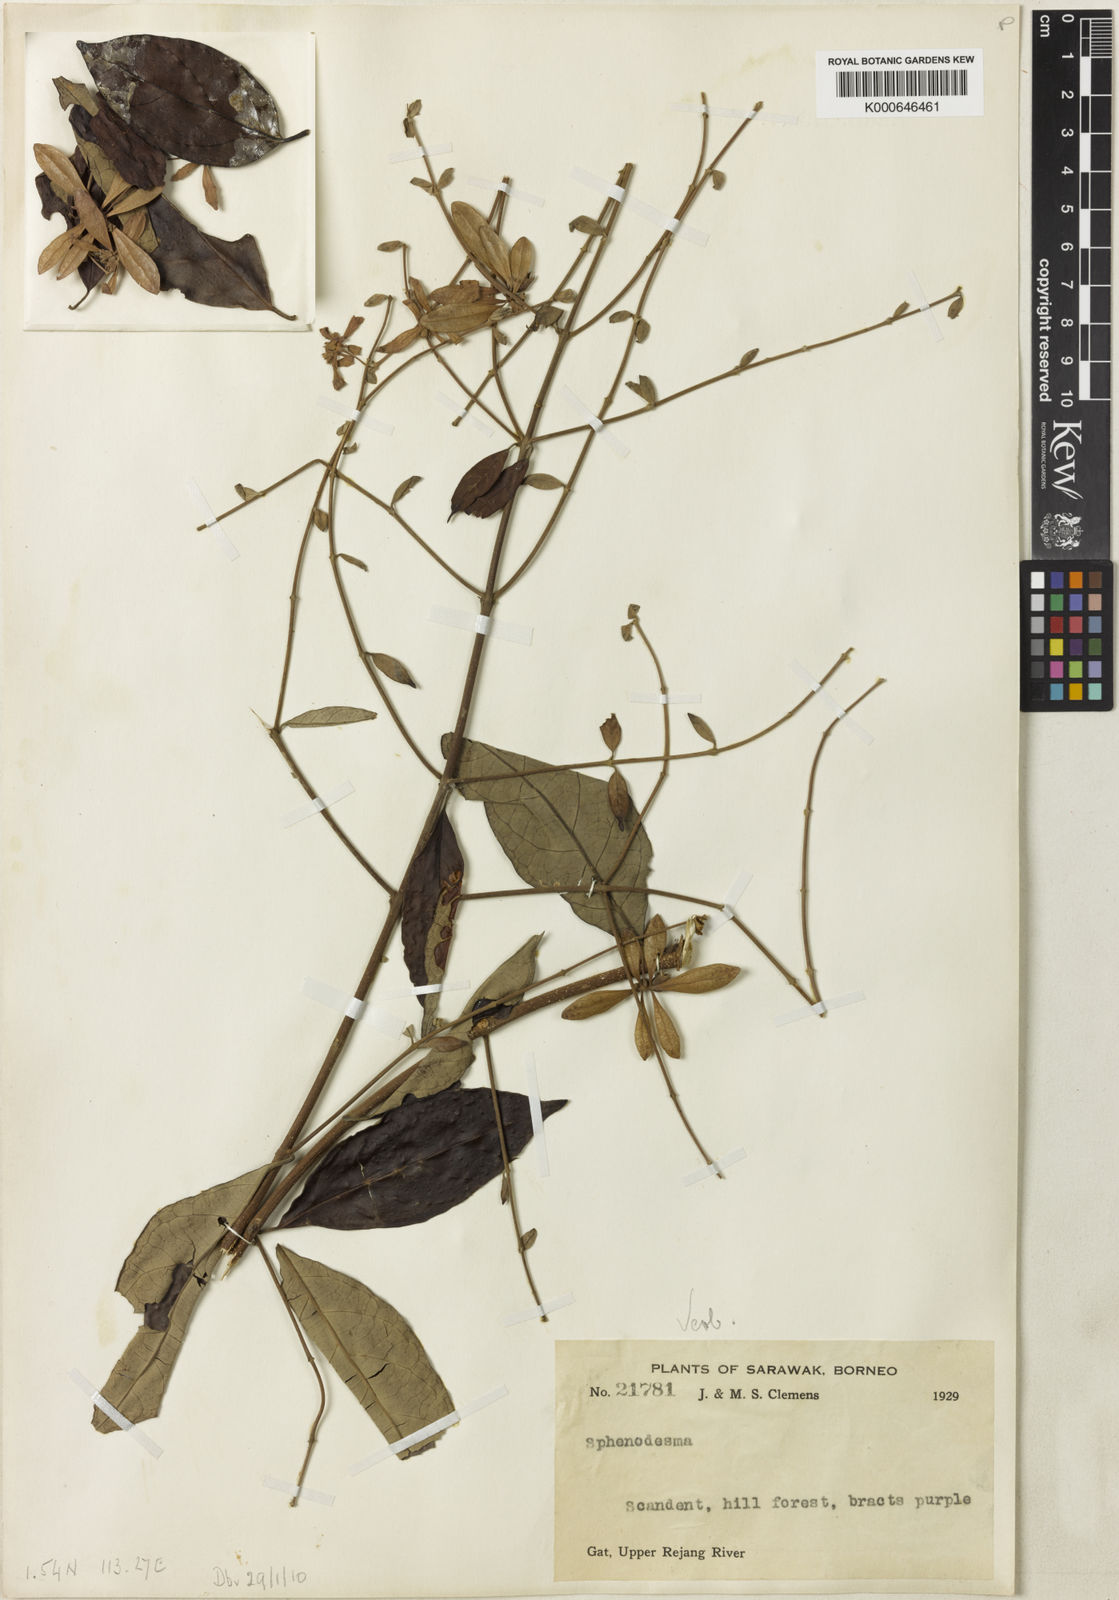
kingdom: Plantae
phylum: Tracheophyta
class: Magnoliopsida
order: Lamiales
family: Lamiaceae
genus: Sphenodesme
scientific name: Sphenodesme
